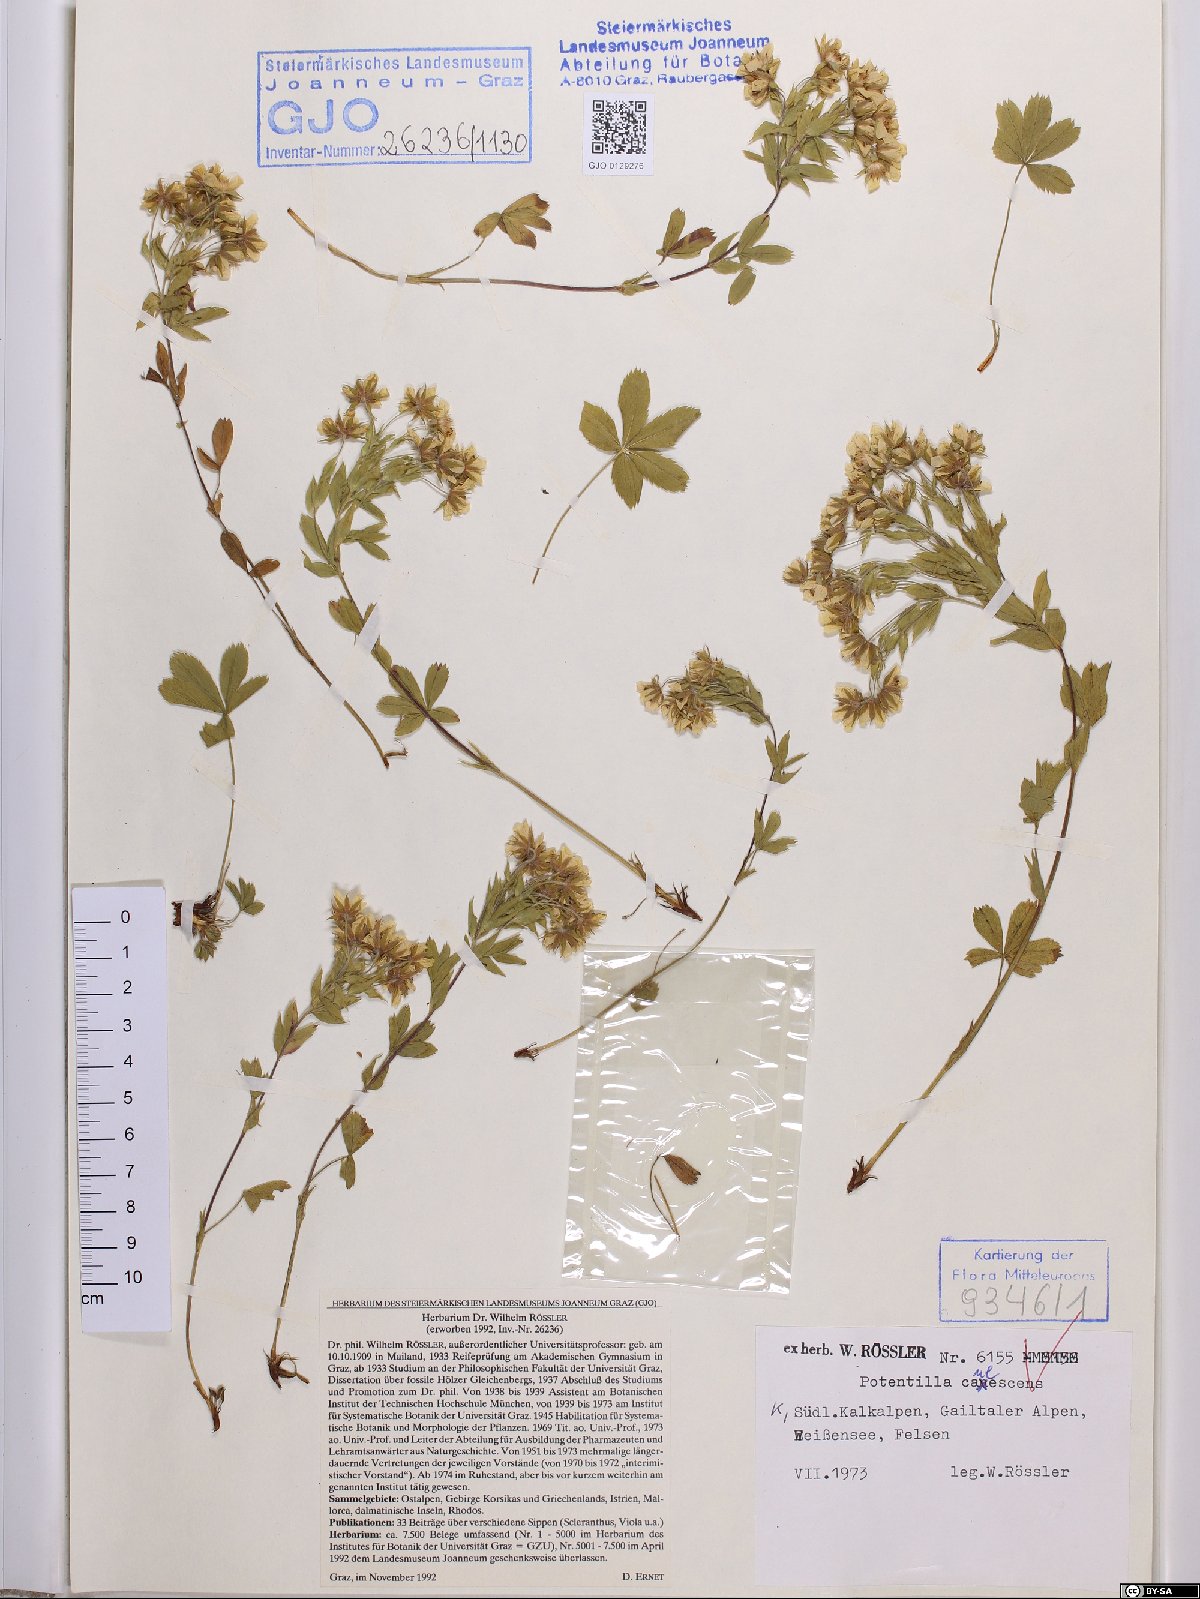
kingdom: Plantae
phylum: Tracheophyta
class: Magnoliopsida
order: Rosales
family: Rosaceae
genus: Potentilla
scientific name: Potentilla caulescens
